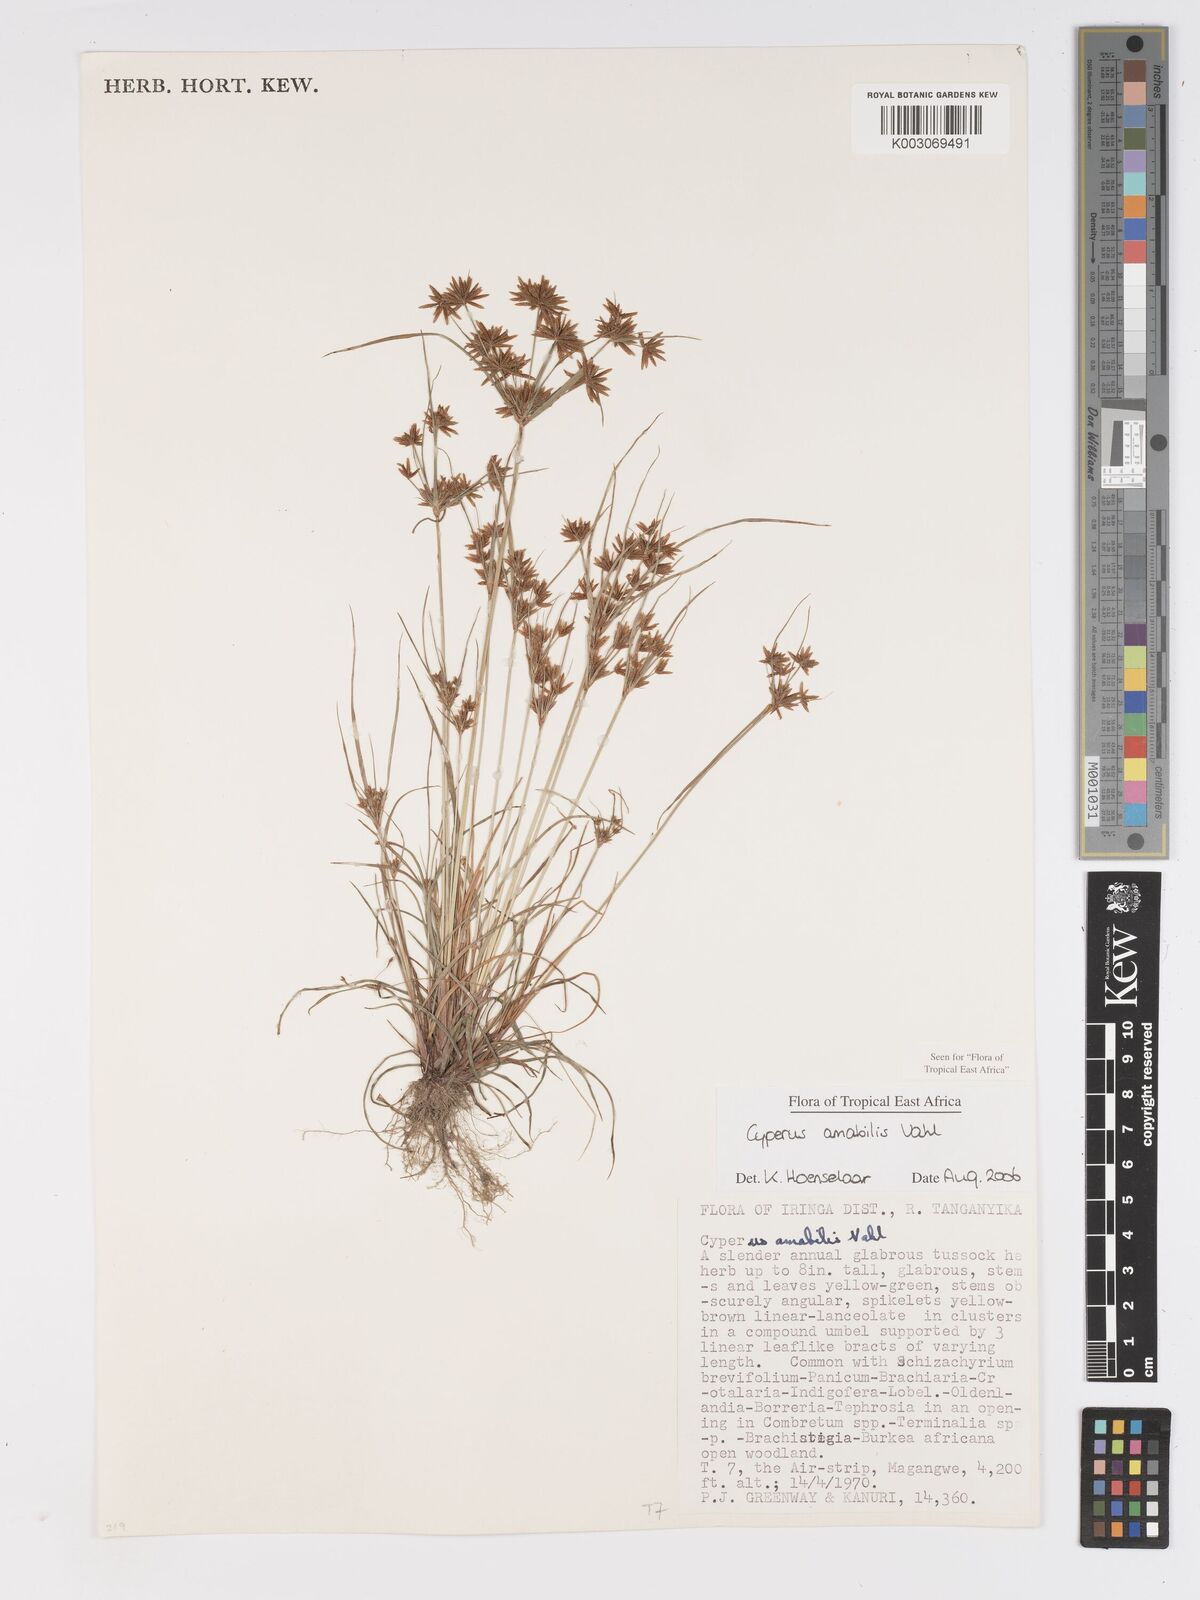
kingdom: Plantae
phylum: Tracheophyta
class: Liliopsida
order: Poales
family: Cyperaceae
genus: Cyperus
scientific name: Cyperus amabilis
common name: Foothill flat sedge
